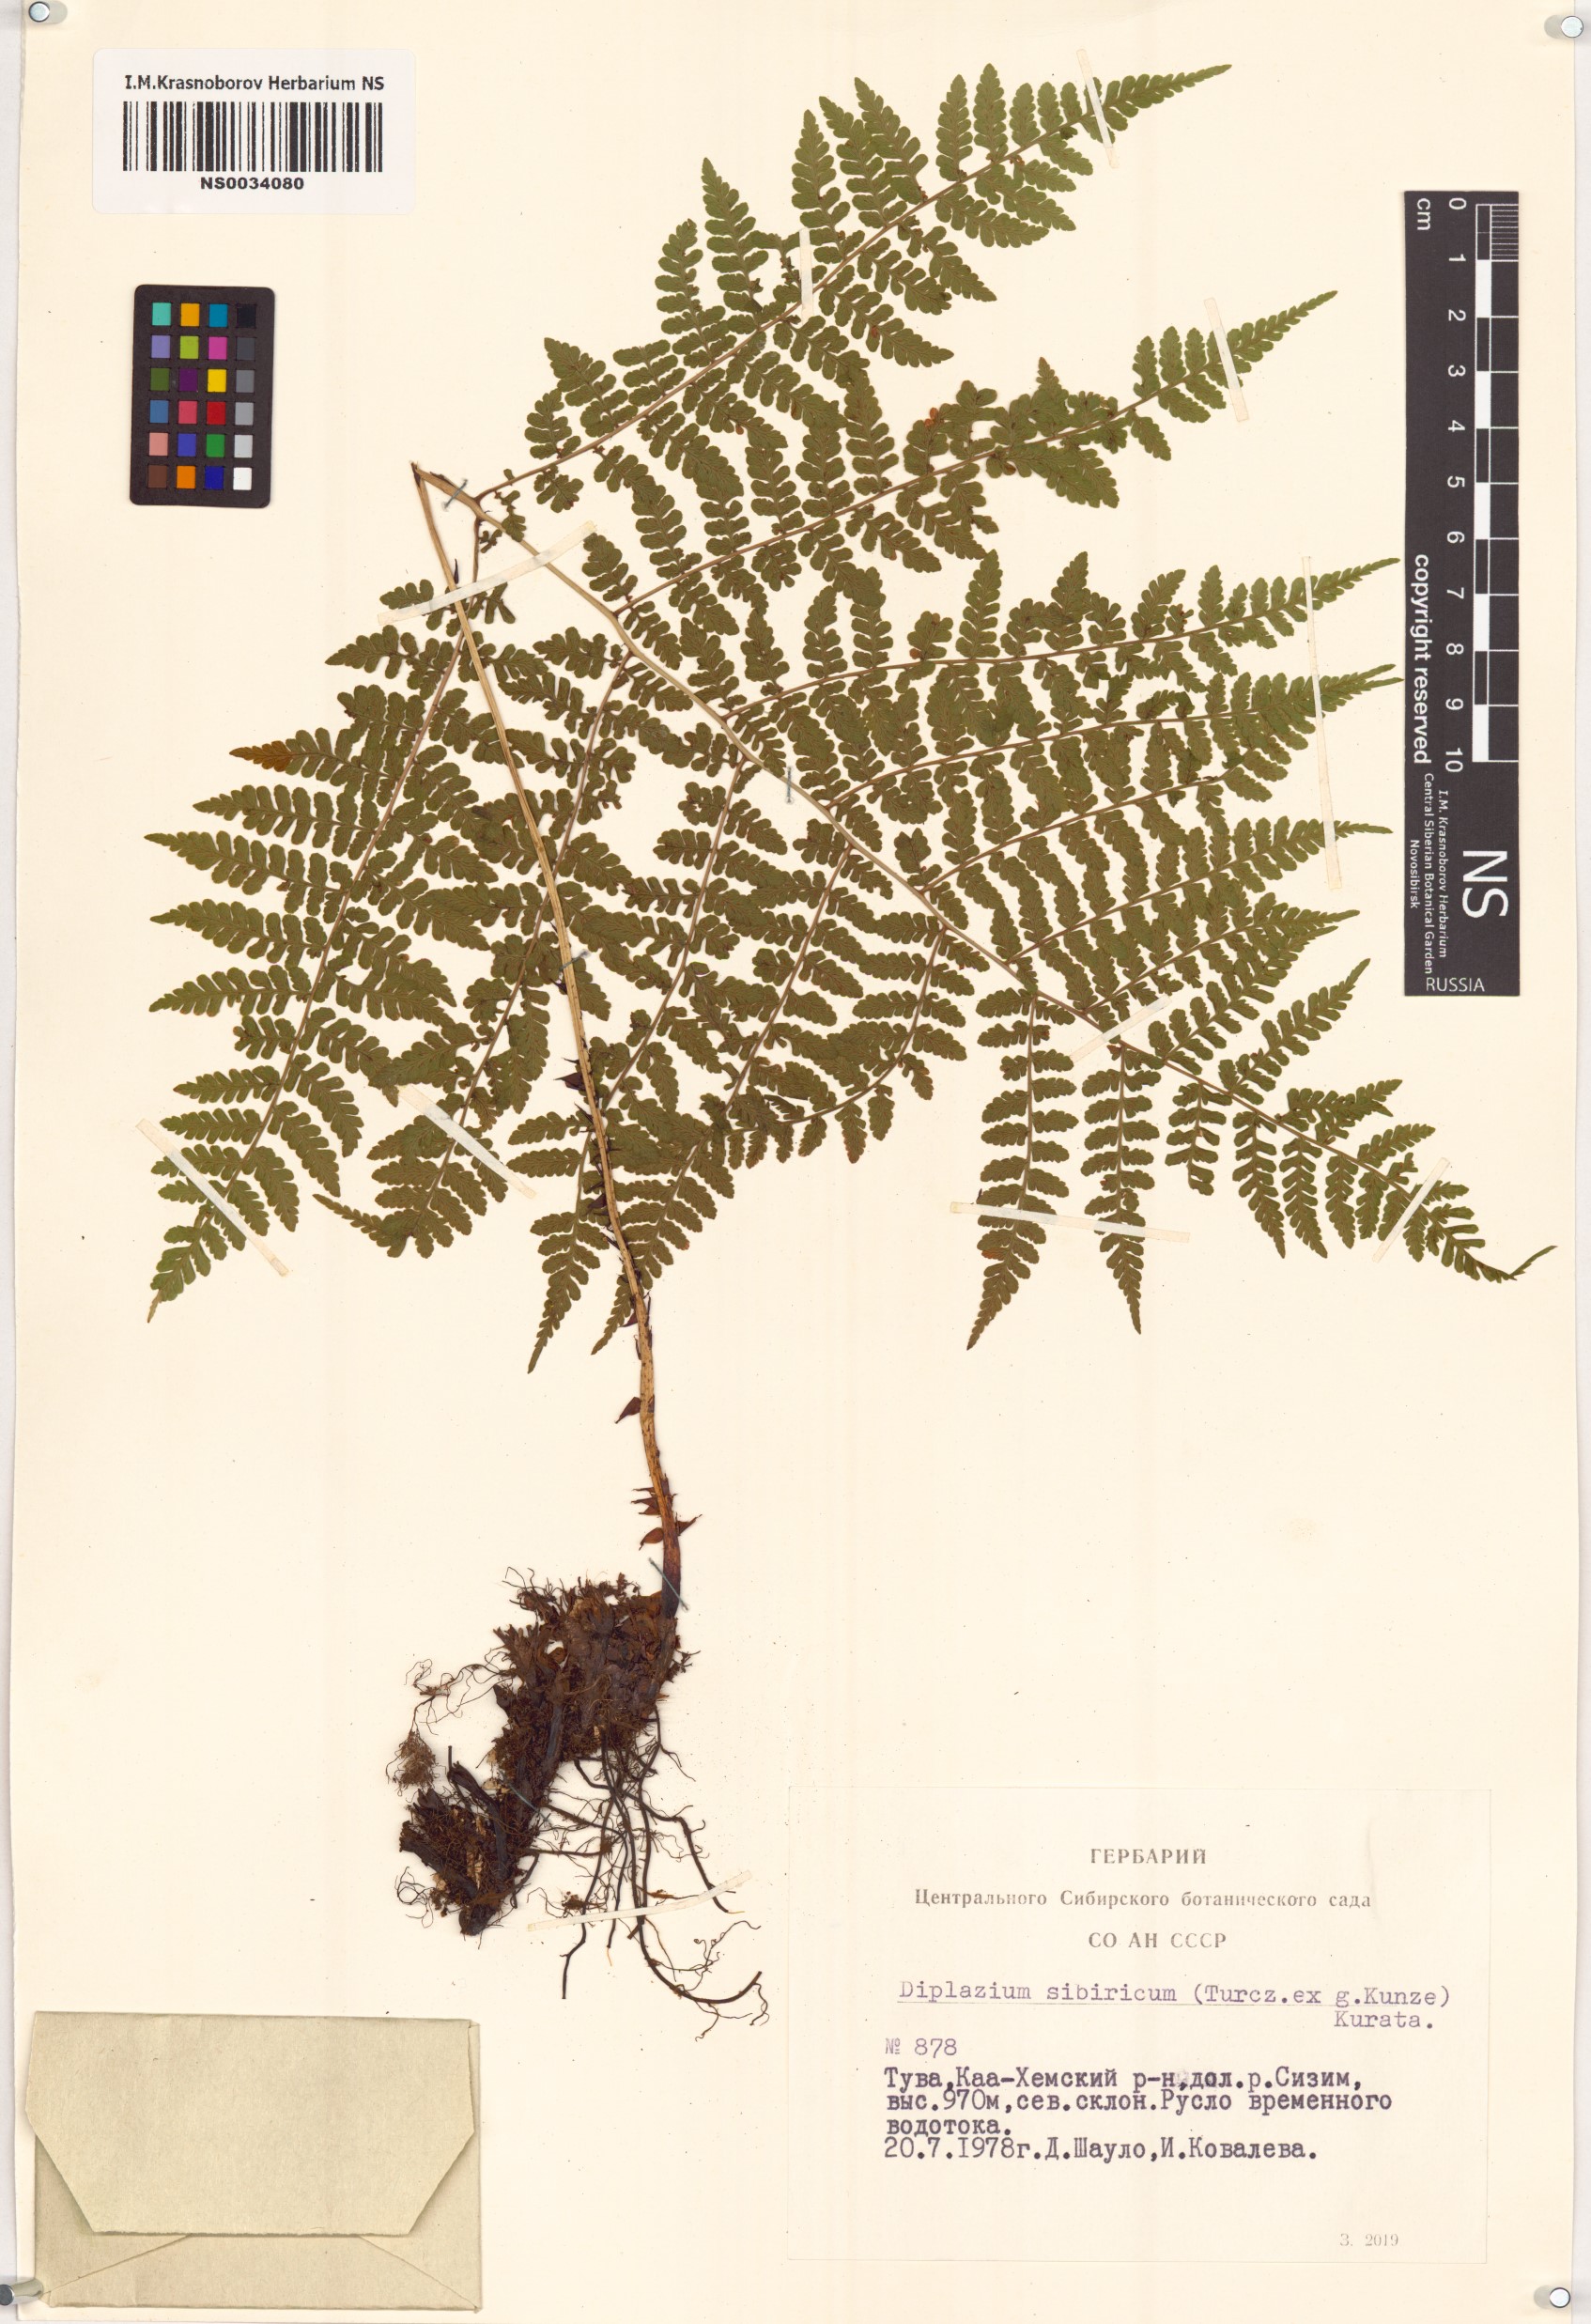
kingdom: Plantae
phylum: Tracheophyta
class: Polypodiopsida
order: Polypodiales
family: Athyriaceae
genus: Diplazium
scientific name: Diplazium sibiricum
